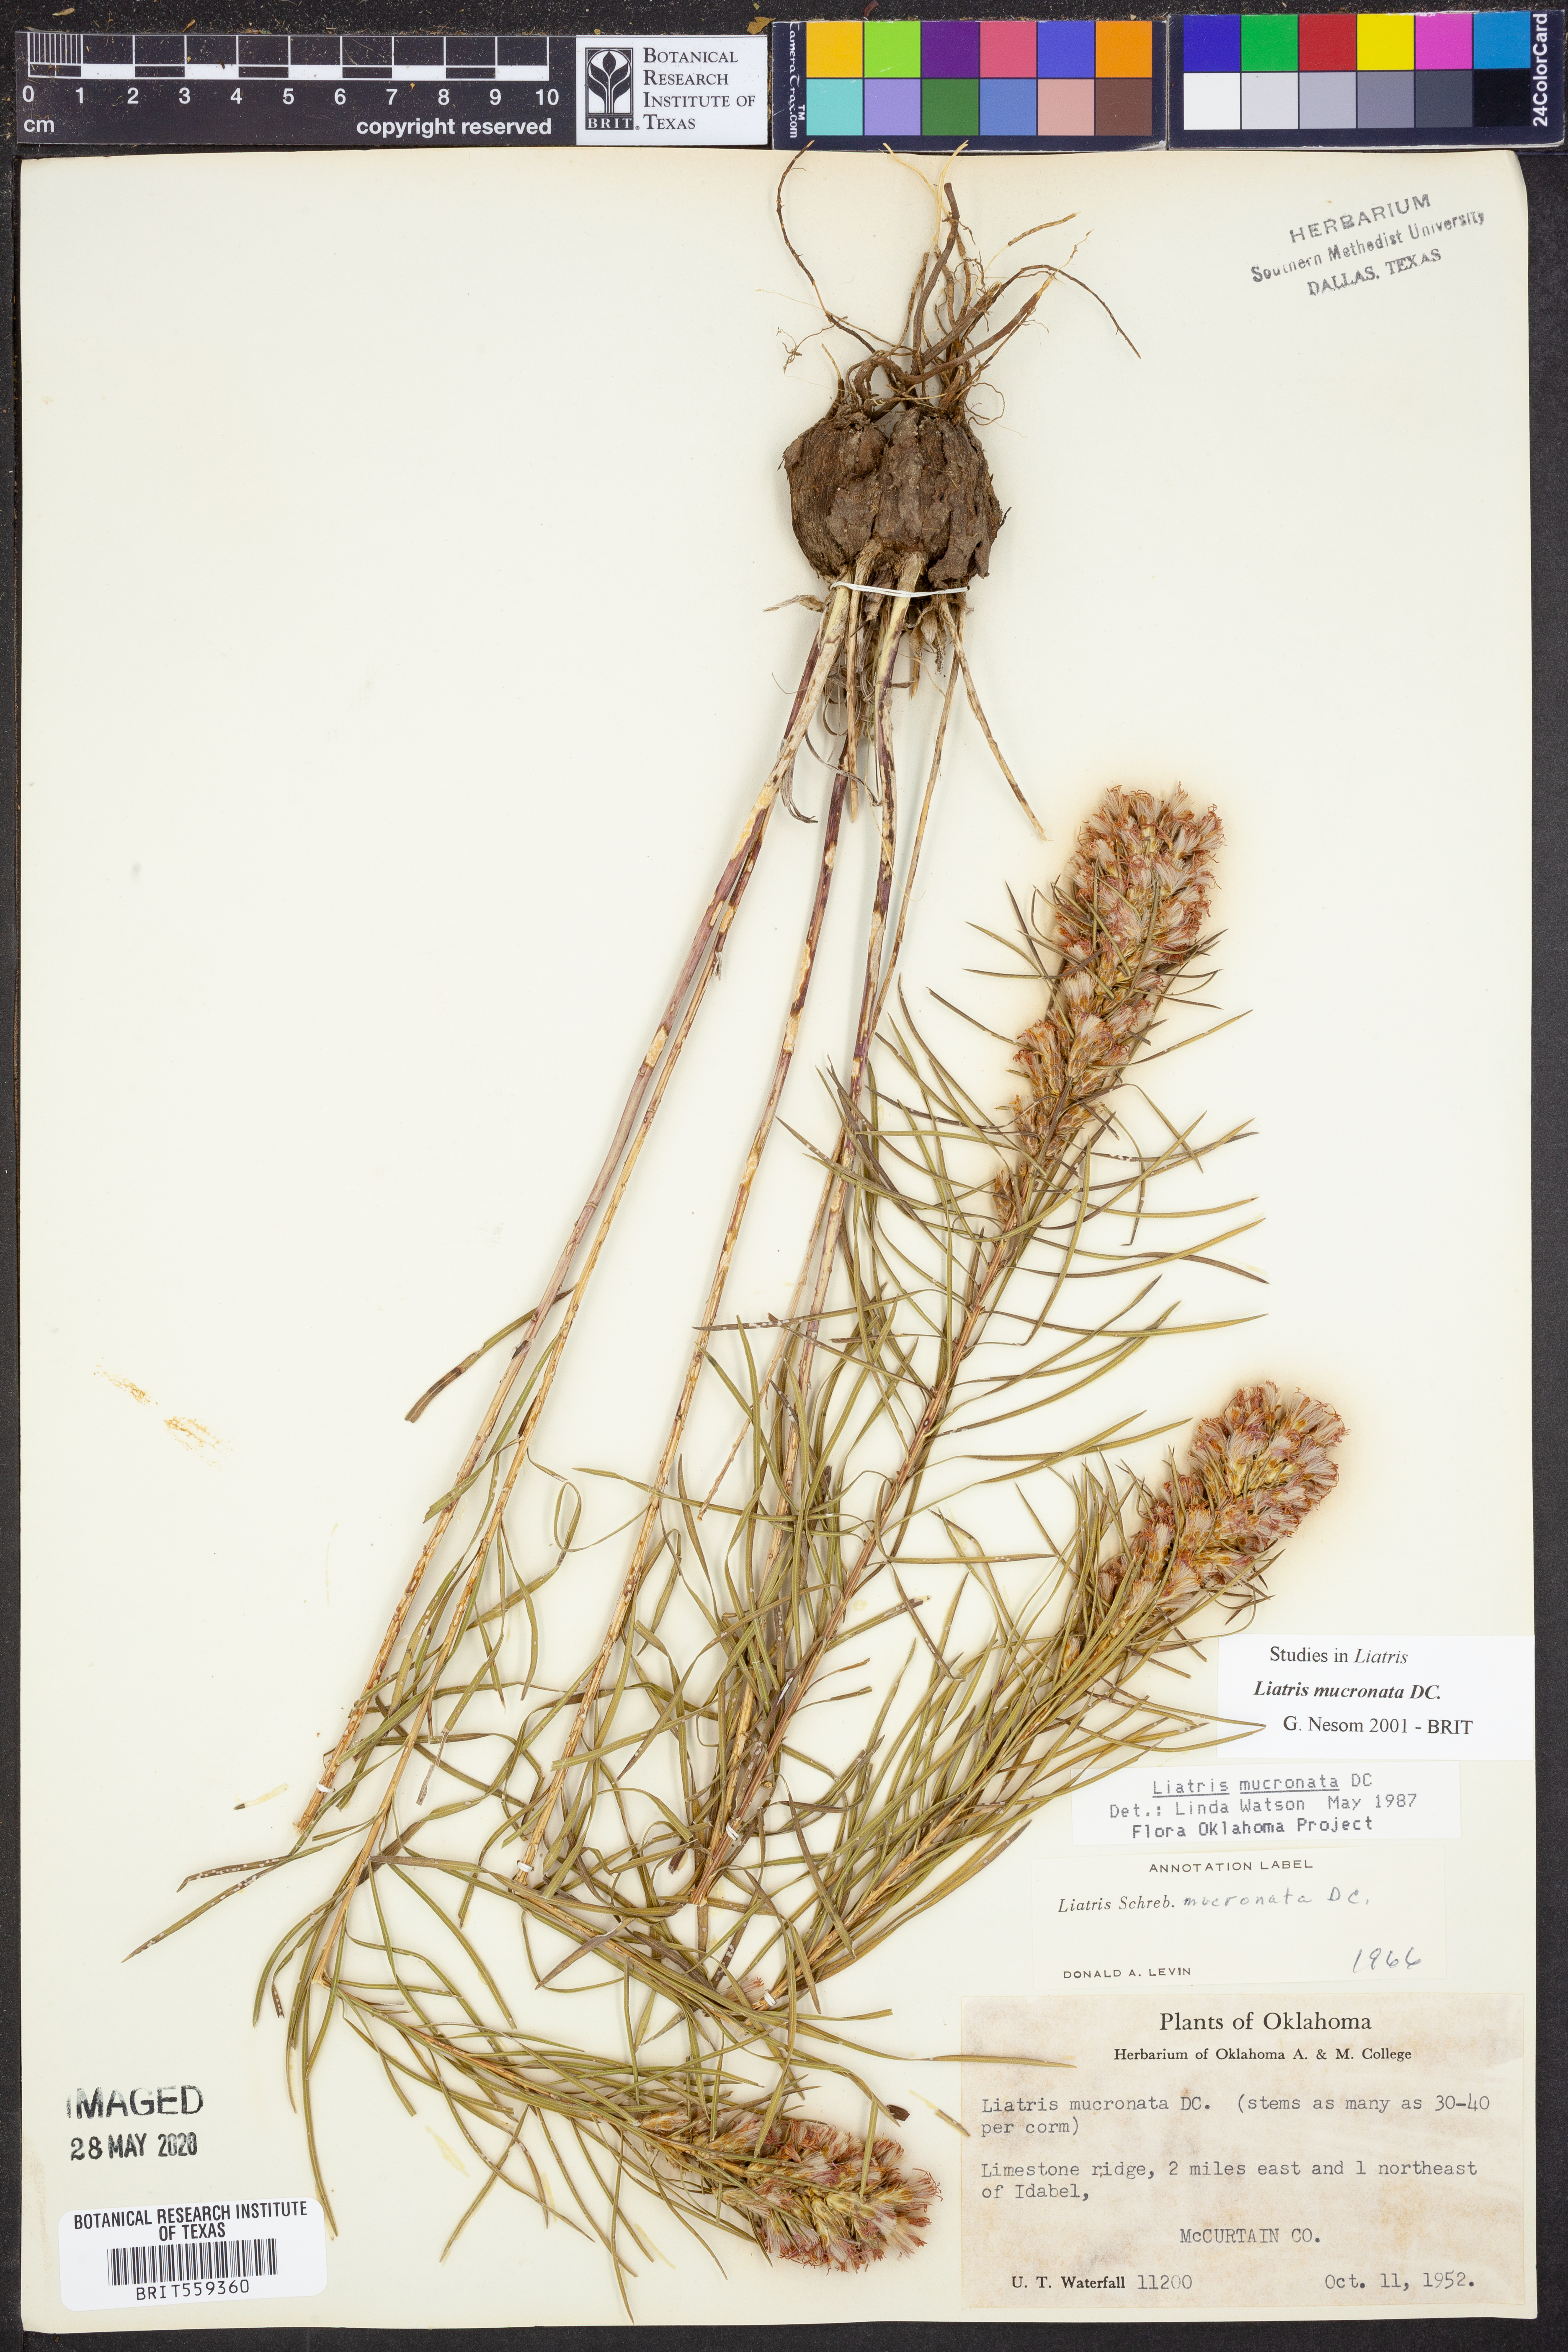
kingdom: Plantae
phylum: Tracheophyta
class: Magnoliopsida
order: Asterales
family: Asteraceae
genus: Liatris
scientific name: Liatris mucronata
